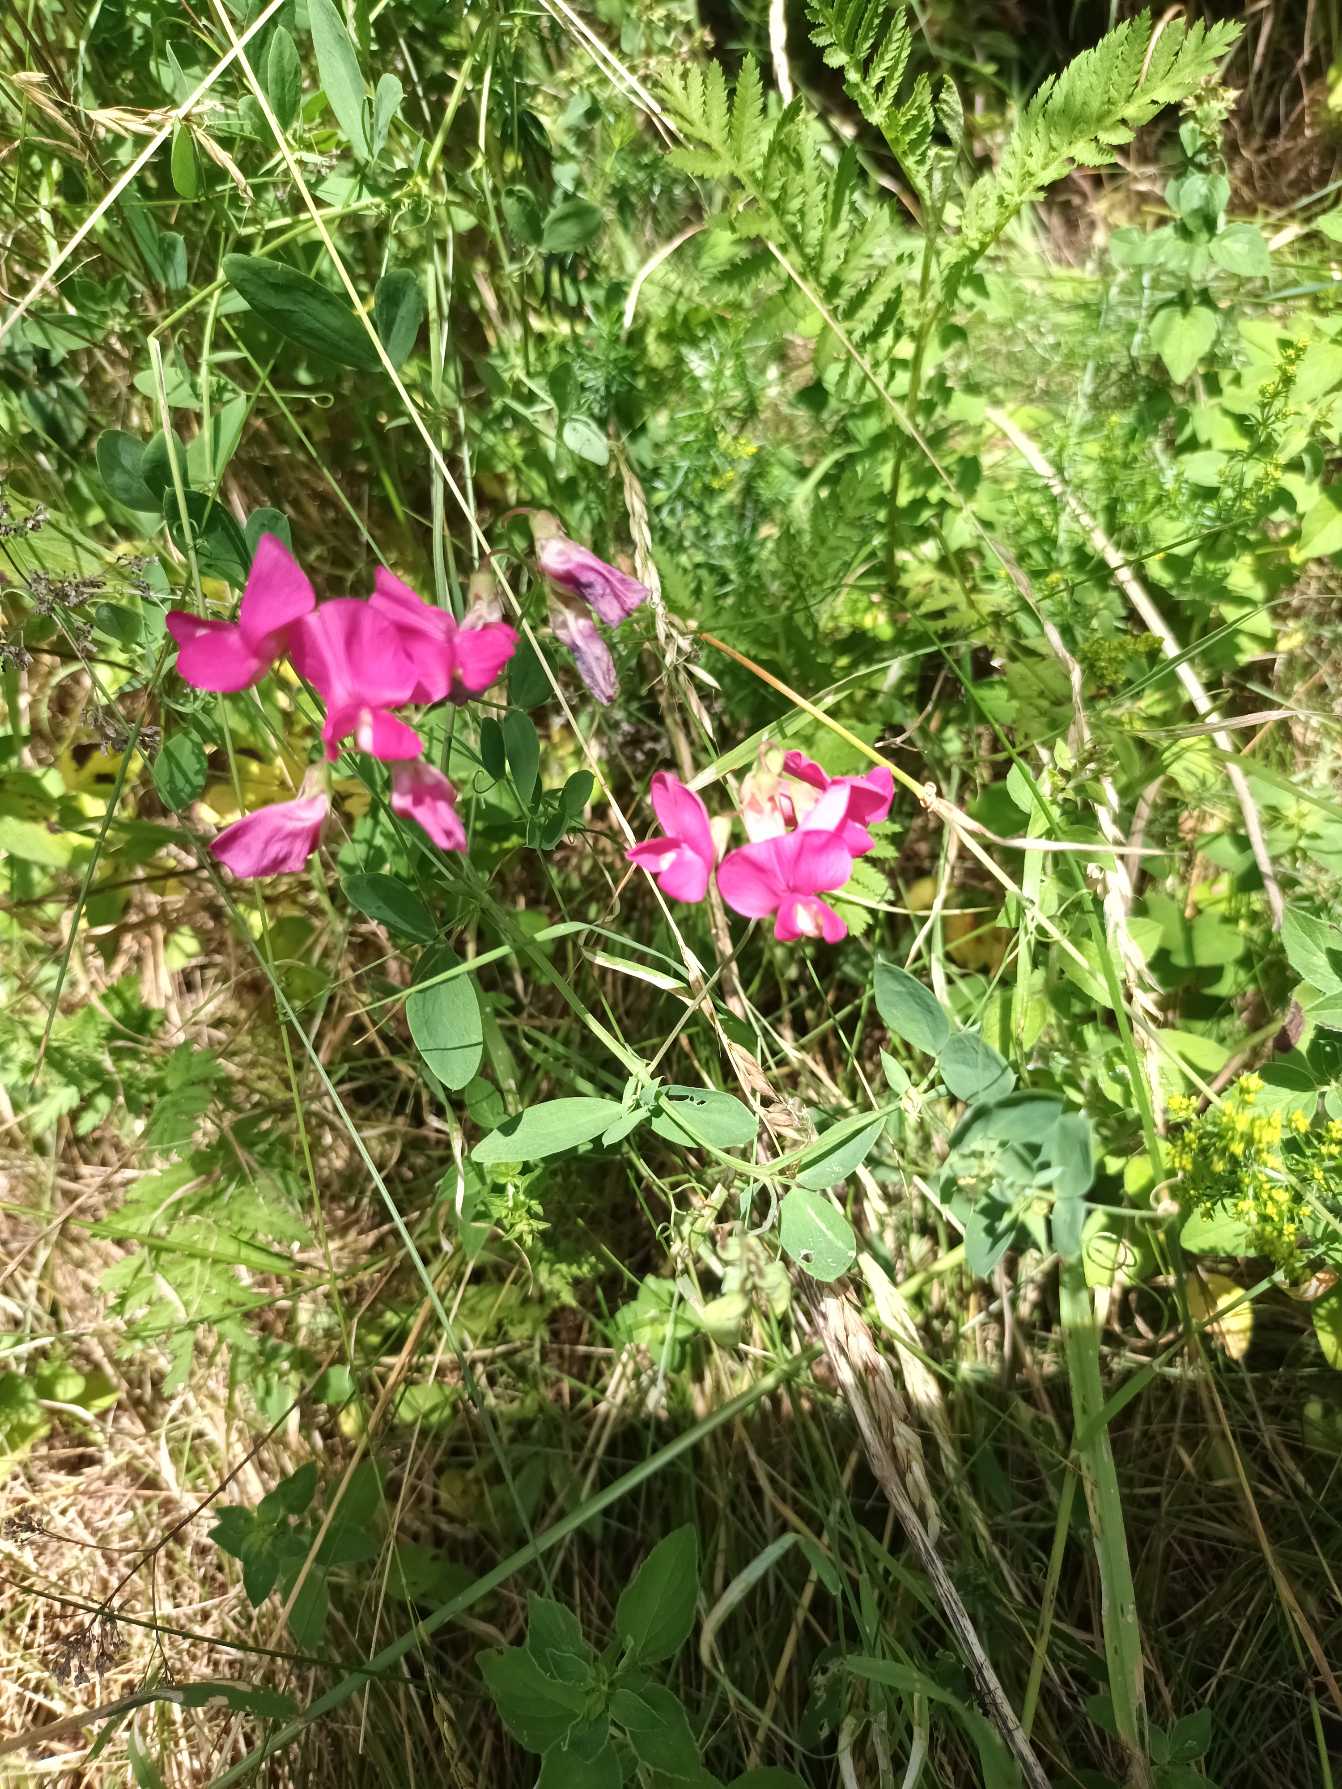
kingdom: Plantae
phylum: Tracheophyta
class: Magnoliopsida
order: Fabales
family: Fabaceae
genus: Lathyrus
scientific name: Lathyrus tuberosus
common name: Knold-fladbælg
